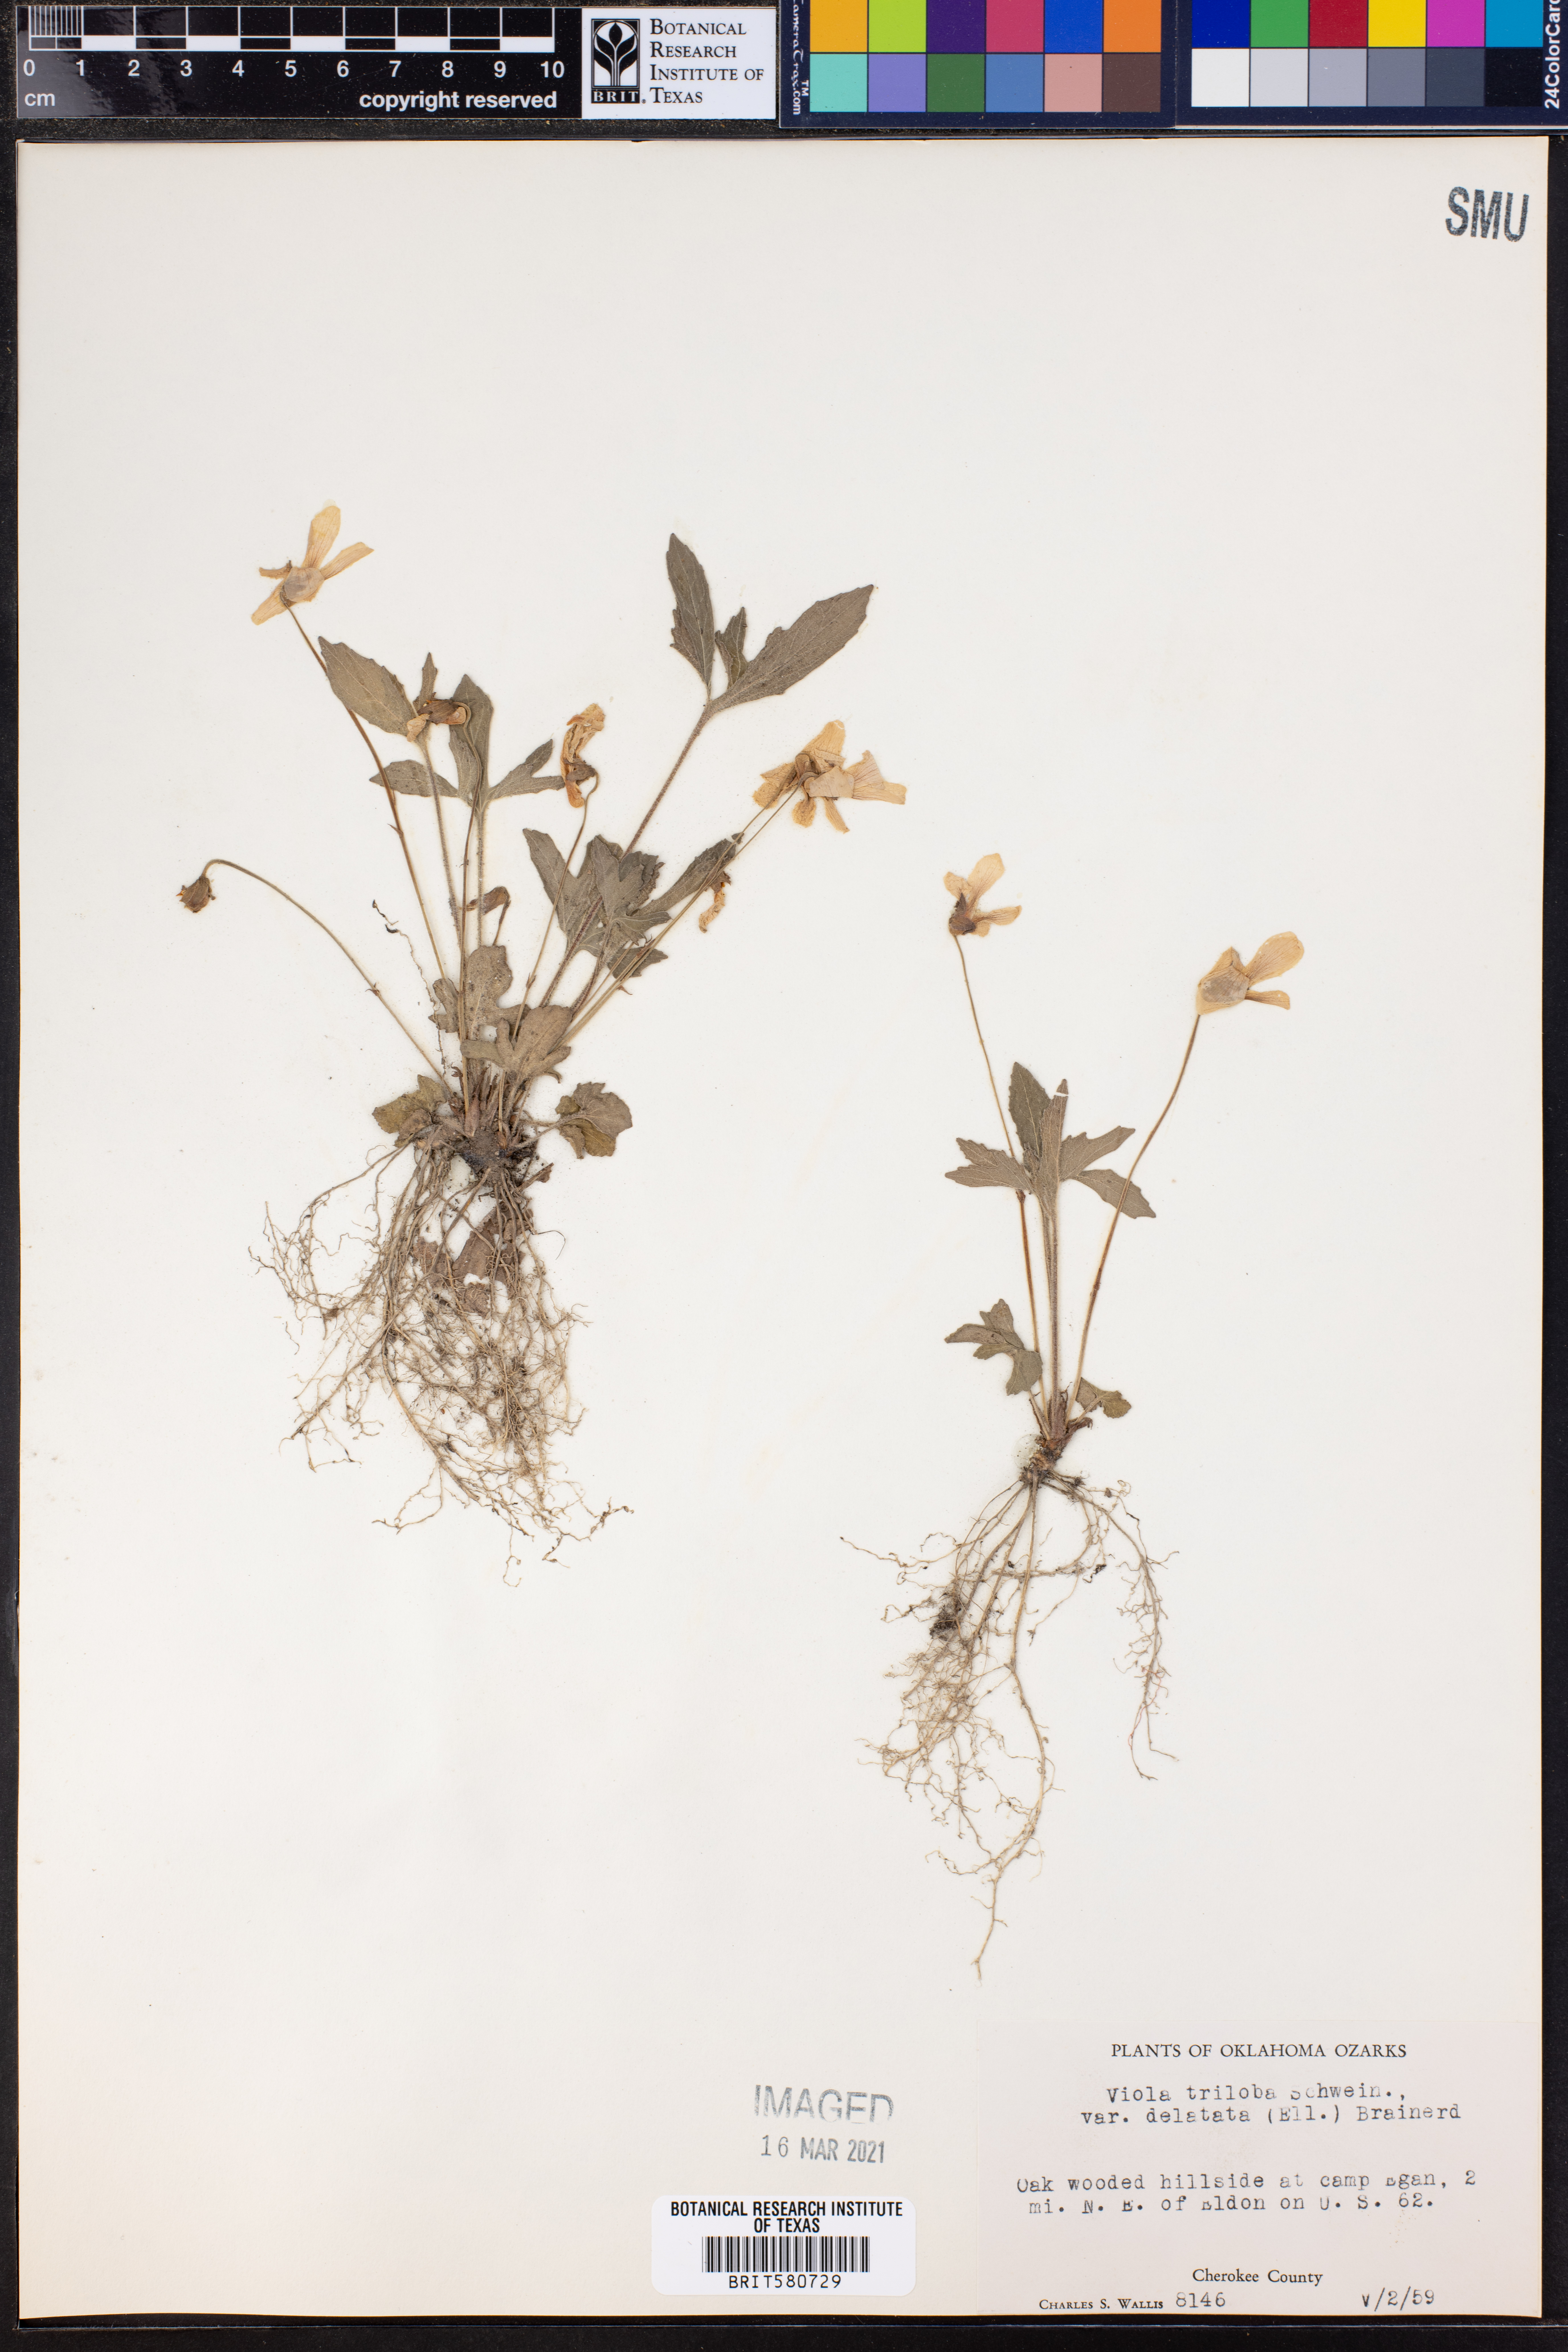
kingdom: Plantae
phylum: Tracheophyta
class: Magnoliopsida
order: Malpighiales
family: Violaceae
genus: Viola
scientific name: Viola palmata
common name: Early blue violet
